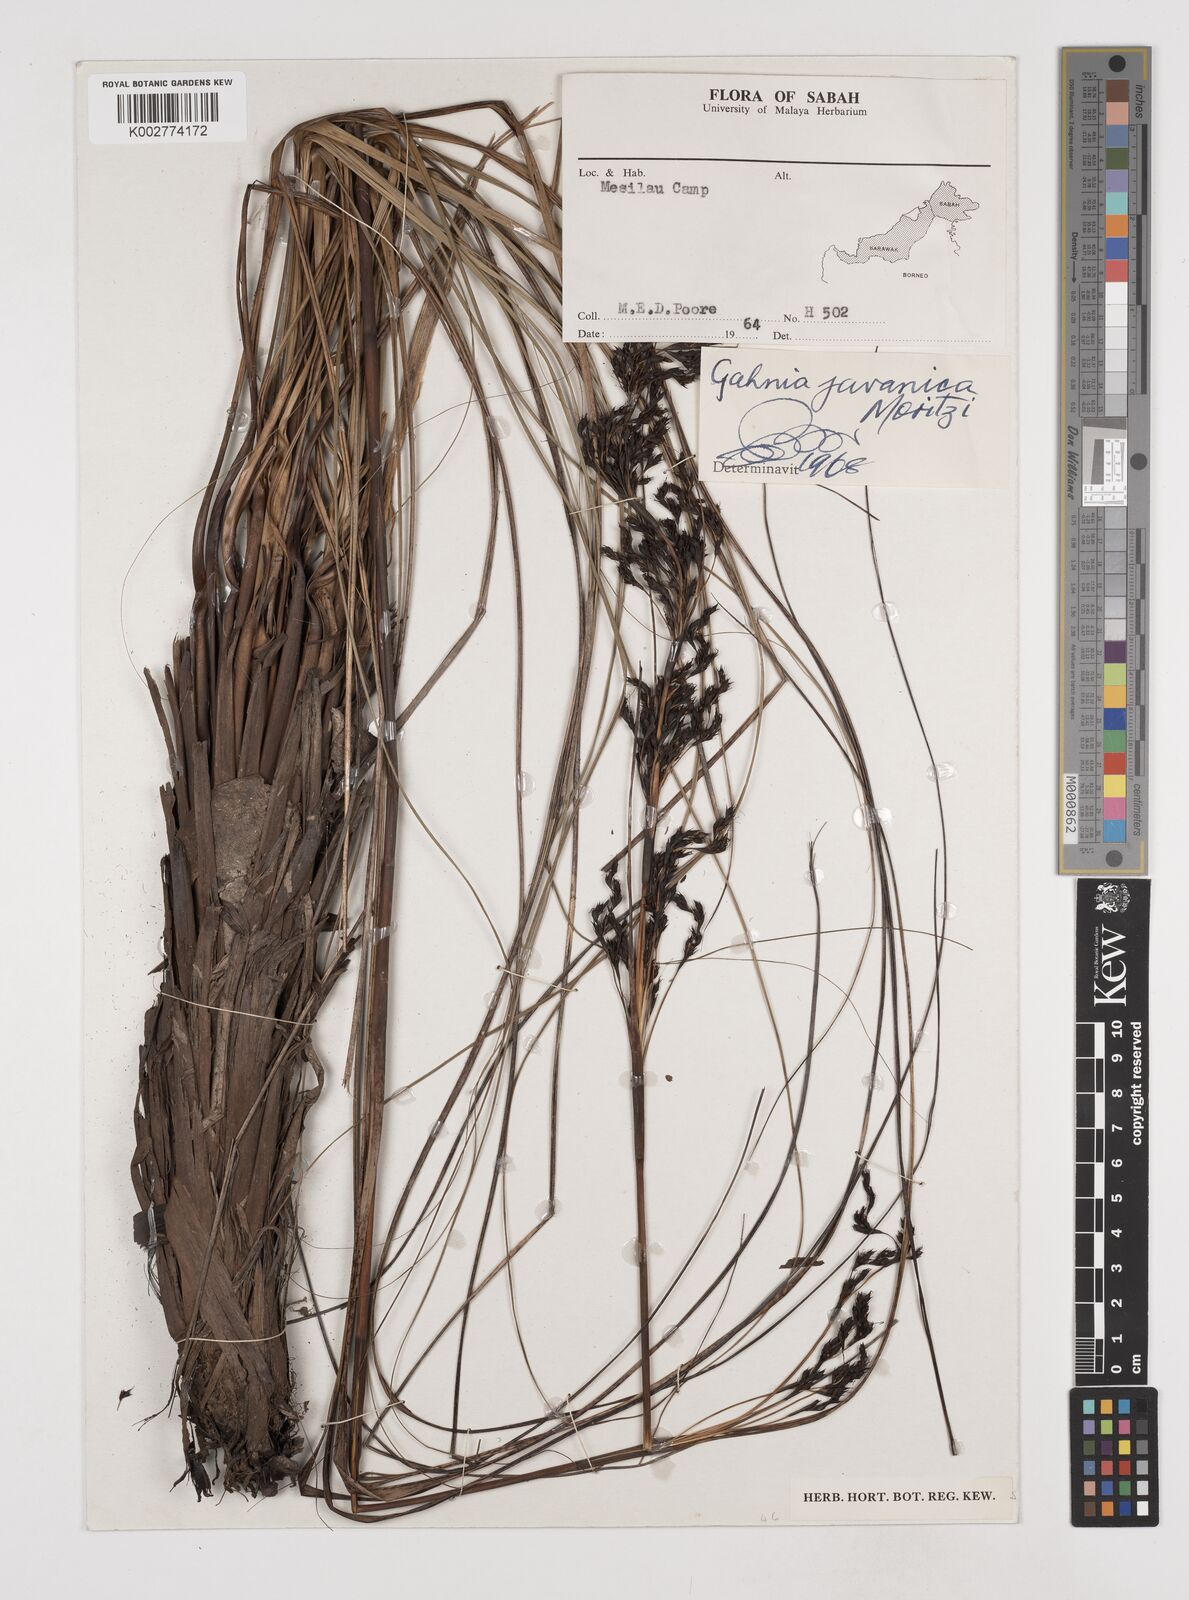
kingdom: Plantae
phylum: Tracheophyta
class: Liliopsida
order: Poales
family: Cyperaceae
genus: Gahnia
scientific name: Gahnia javanica
